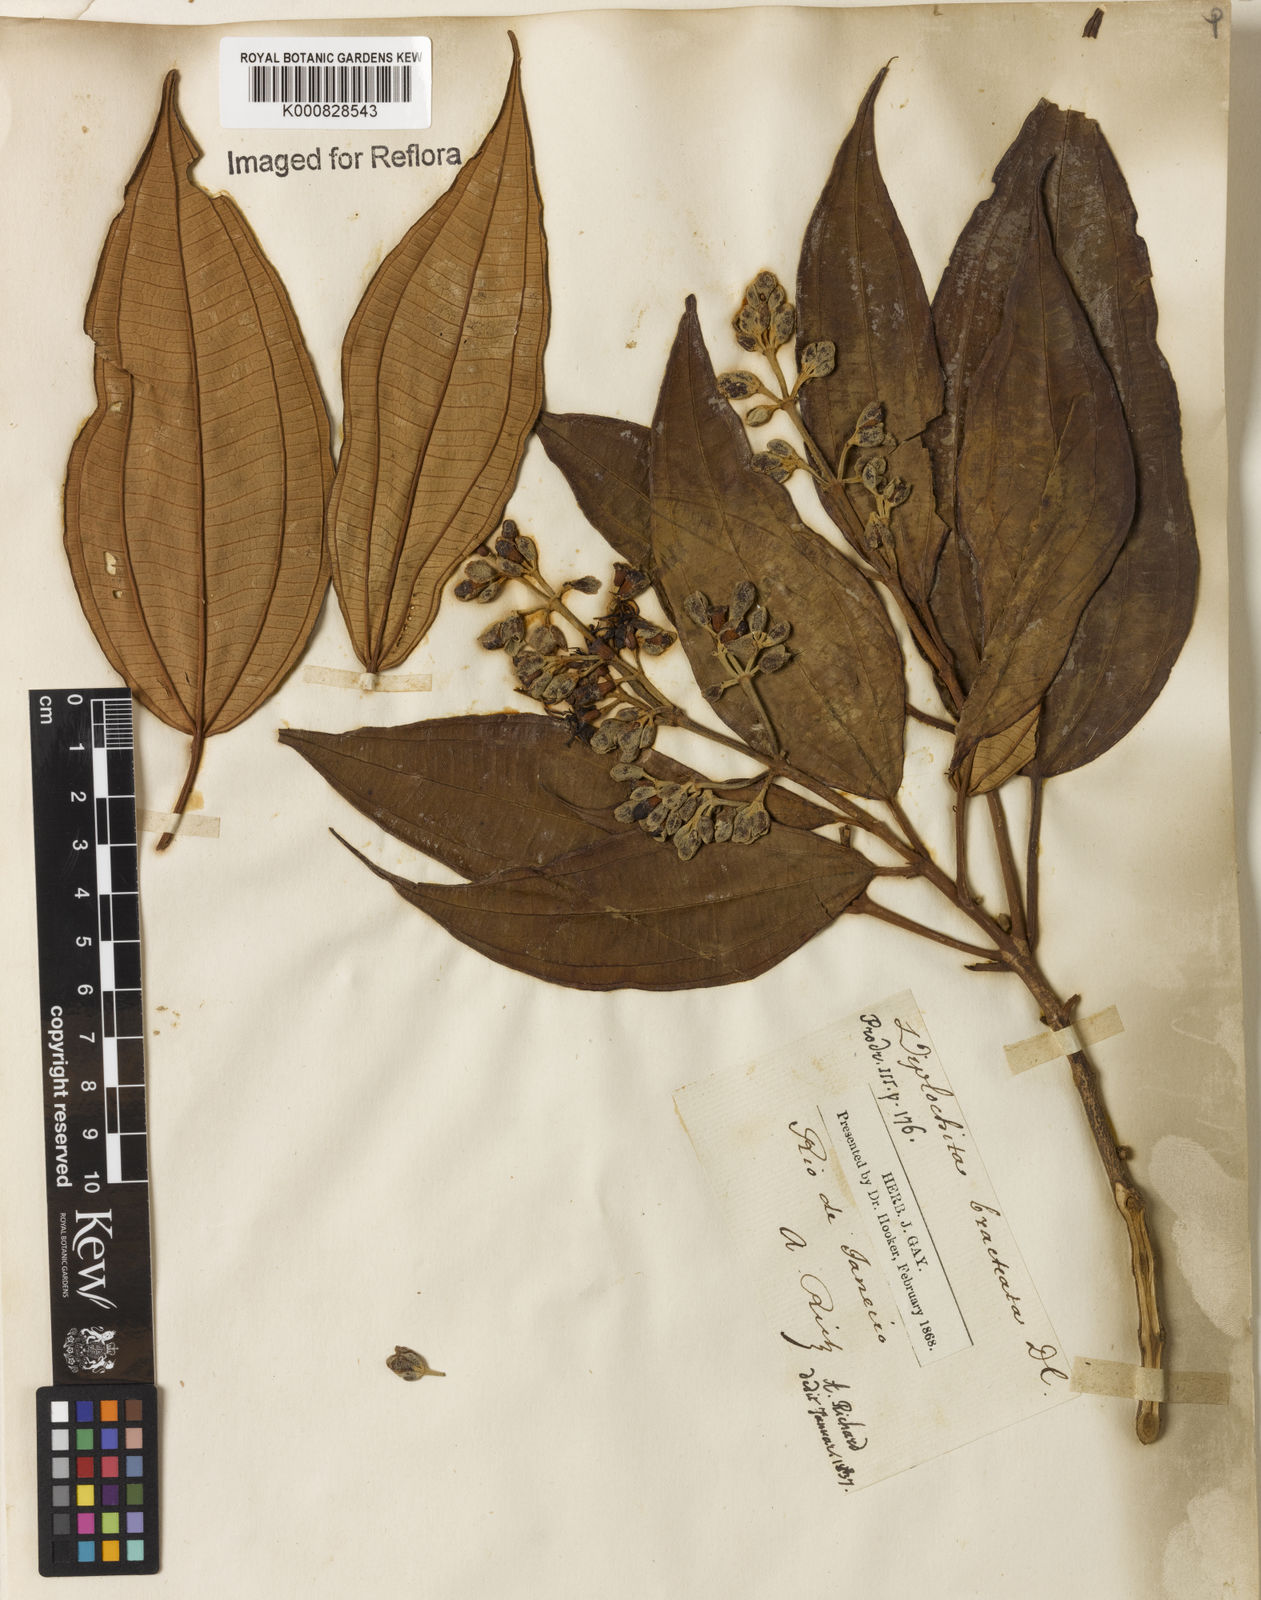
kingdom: Plantae
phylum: Tracheophyta
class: Magnoliopsida
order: Myrtales
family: Melastomataceae
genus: Miconia
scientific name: Miconia mirabilis
